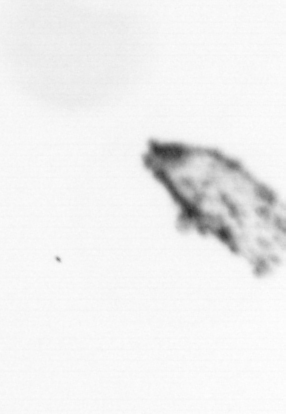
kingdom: Animalia
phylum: Arthropoda
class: Maxillopoda
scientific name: Maxillopoda
